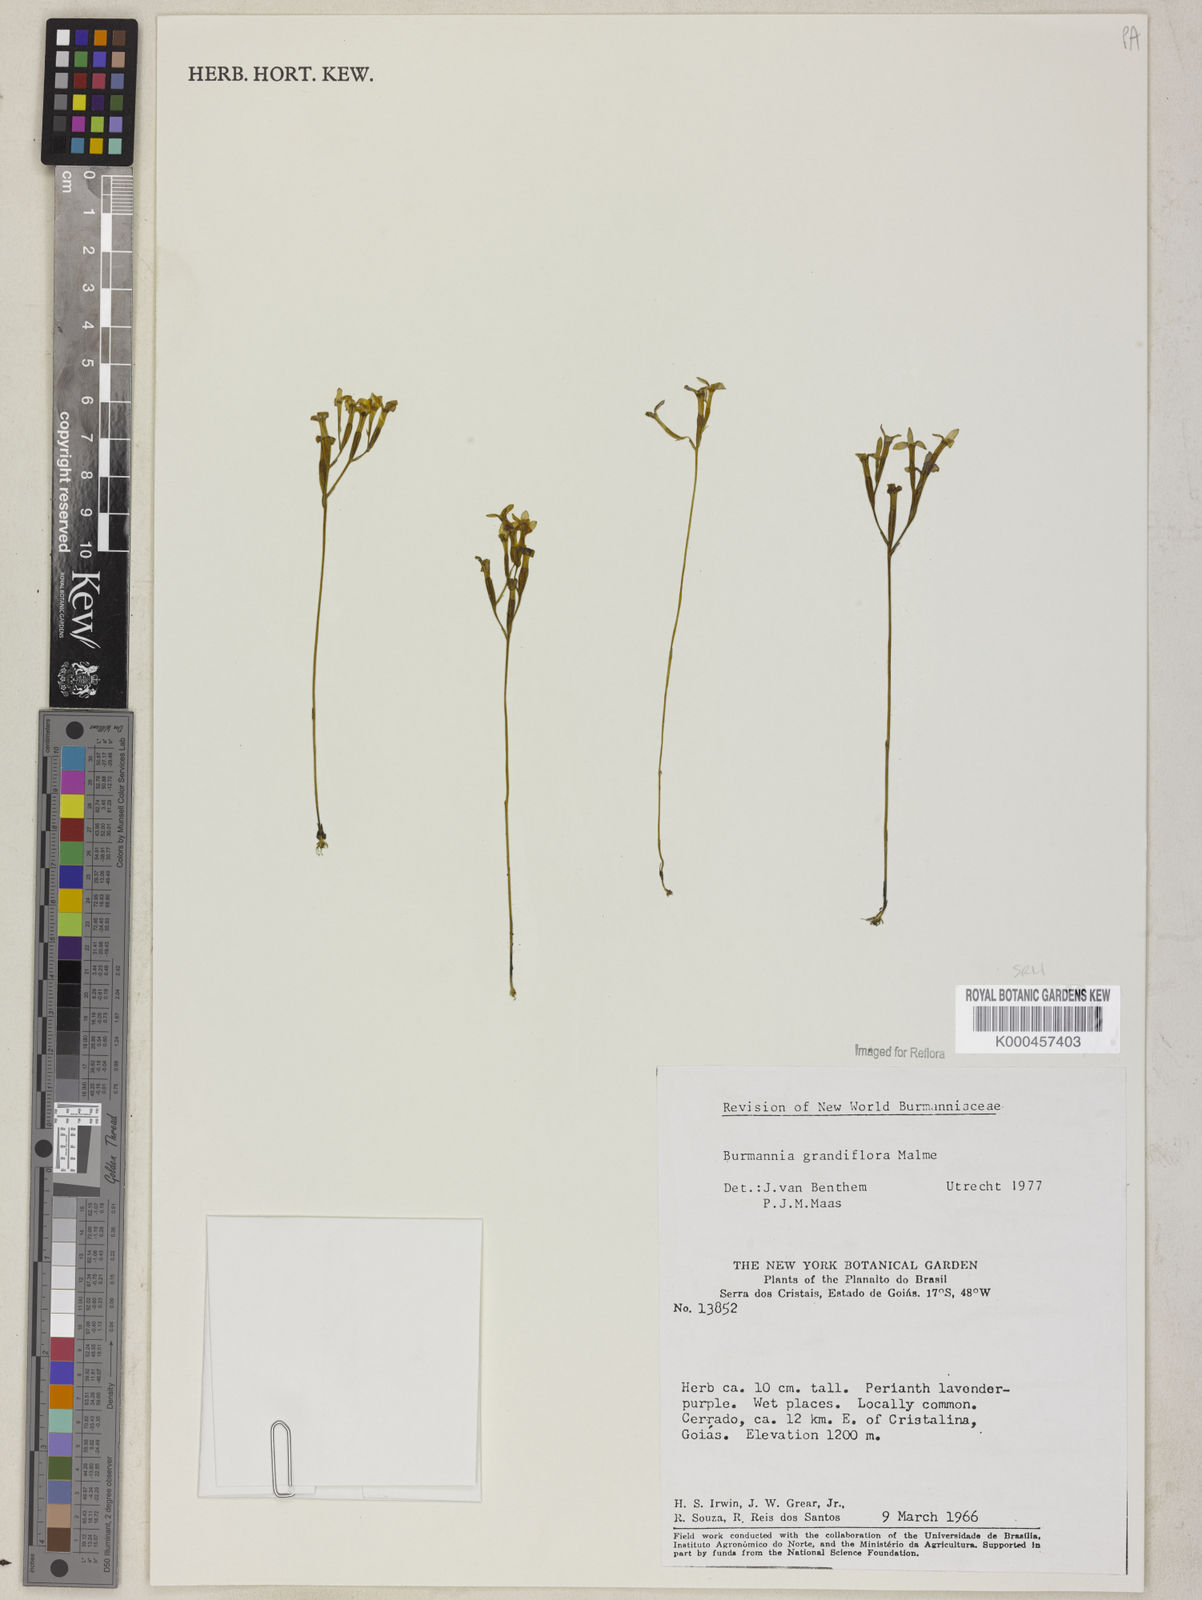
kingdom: Plantae
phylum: Tracheophyta
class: Liliopsida
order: Dioscoreales
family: Burmanniaceae
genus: Burmannia
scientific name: Burmannia grandiflora
